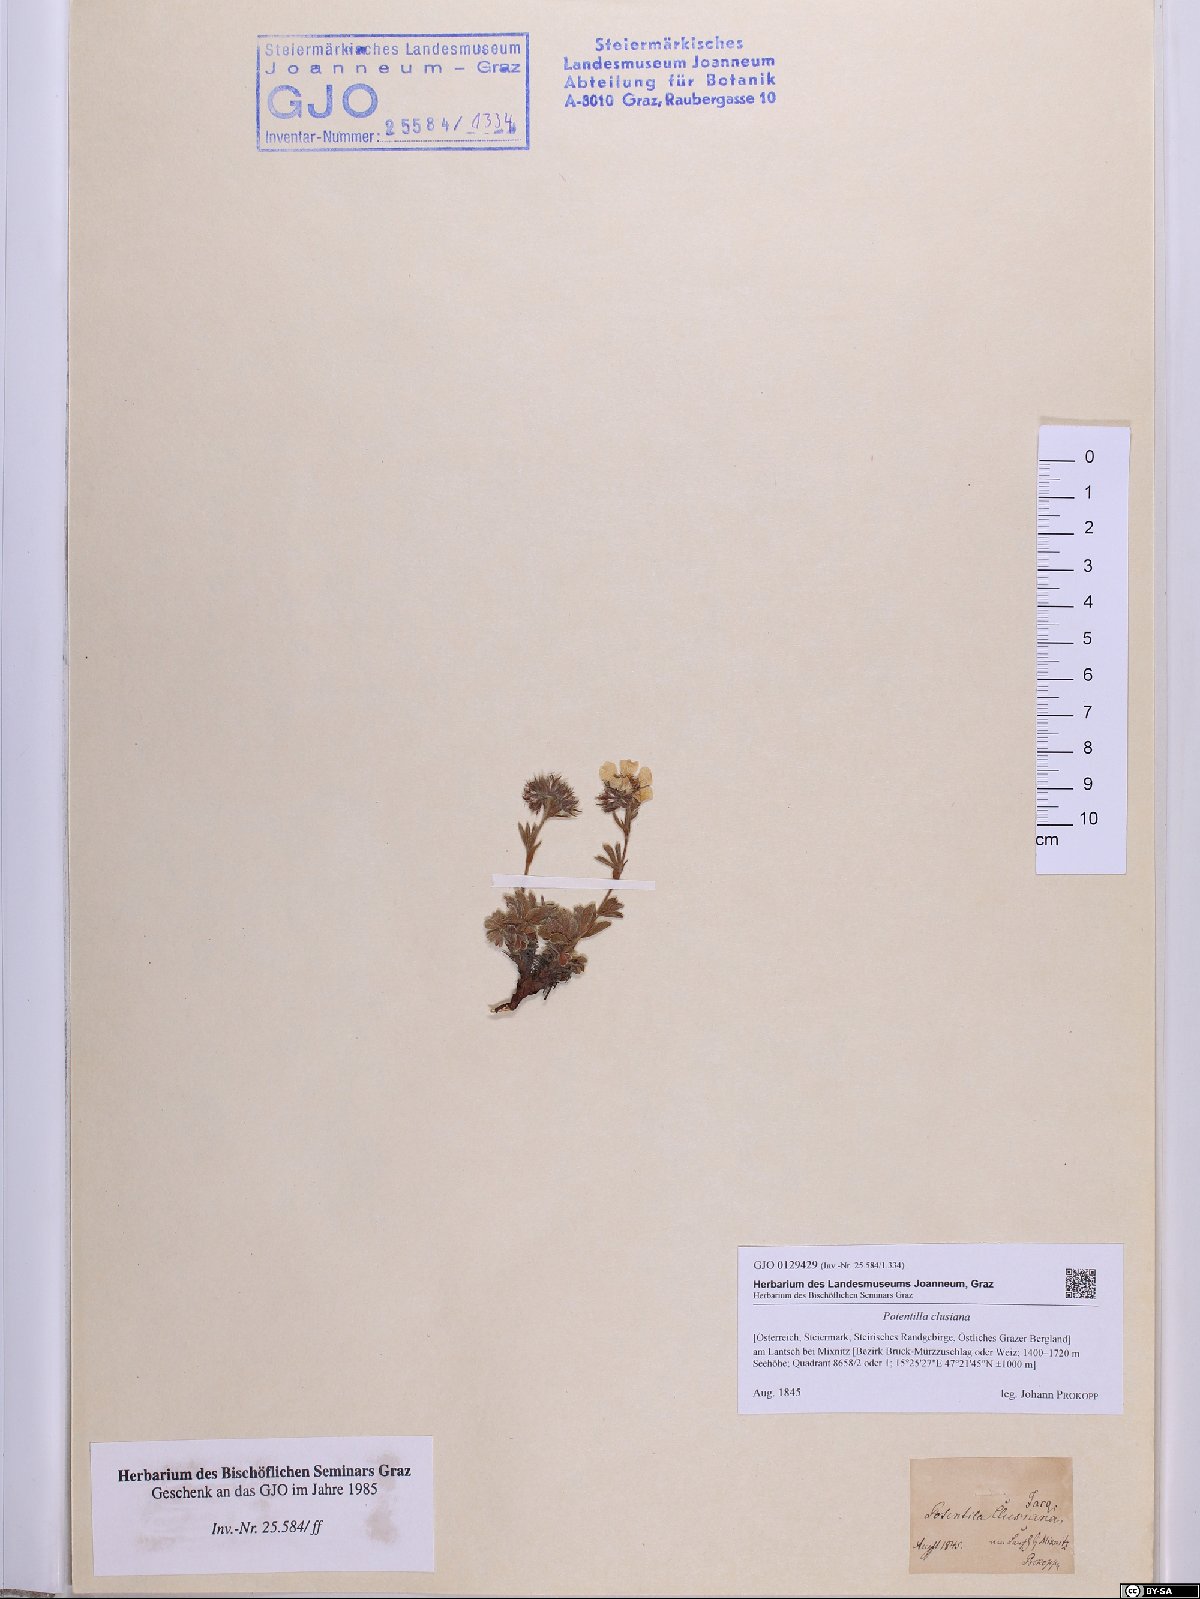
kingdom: Plantae
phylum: Tracheophyta
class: Magnoliopsida
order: Rosales
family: Rosaceae
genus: Potentilla
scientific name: Potentilla clusiana
